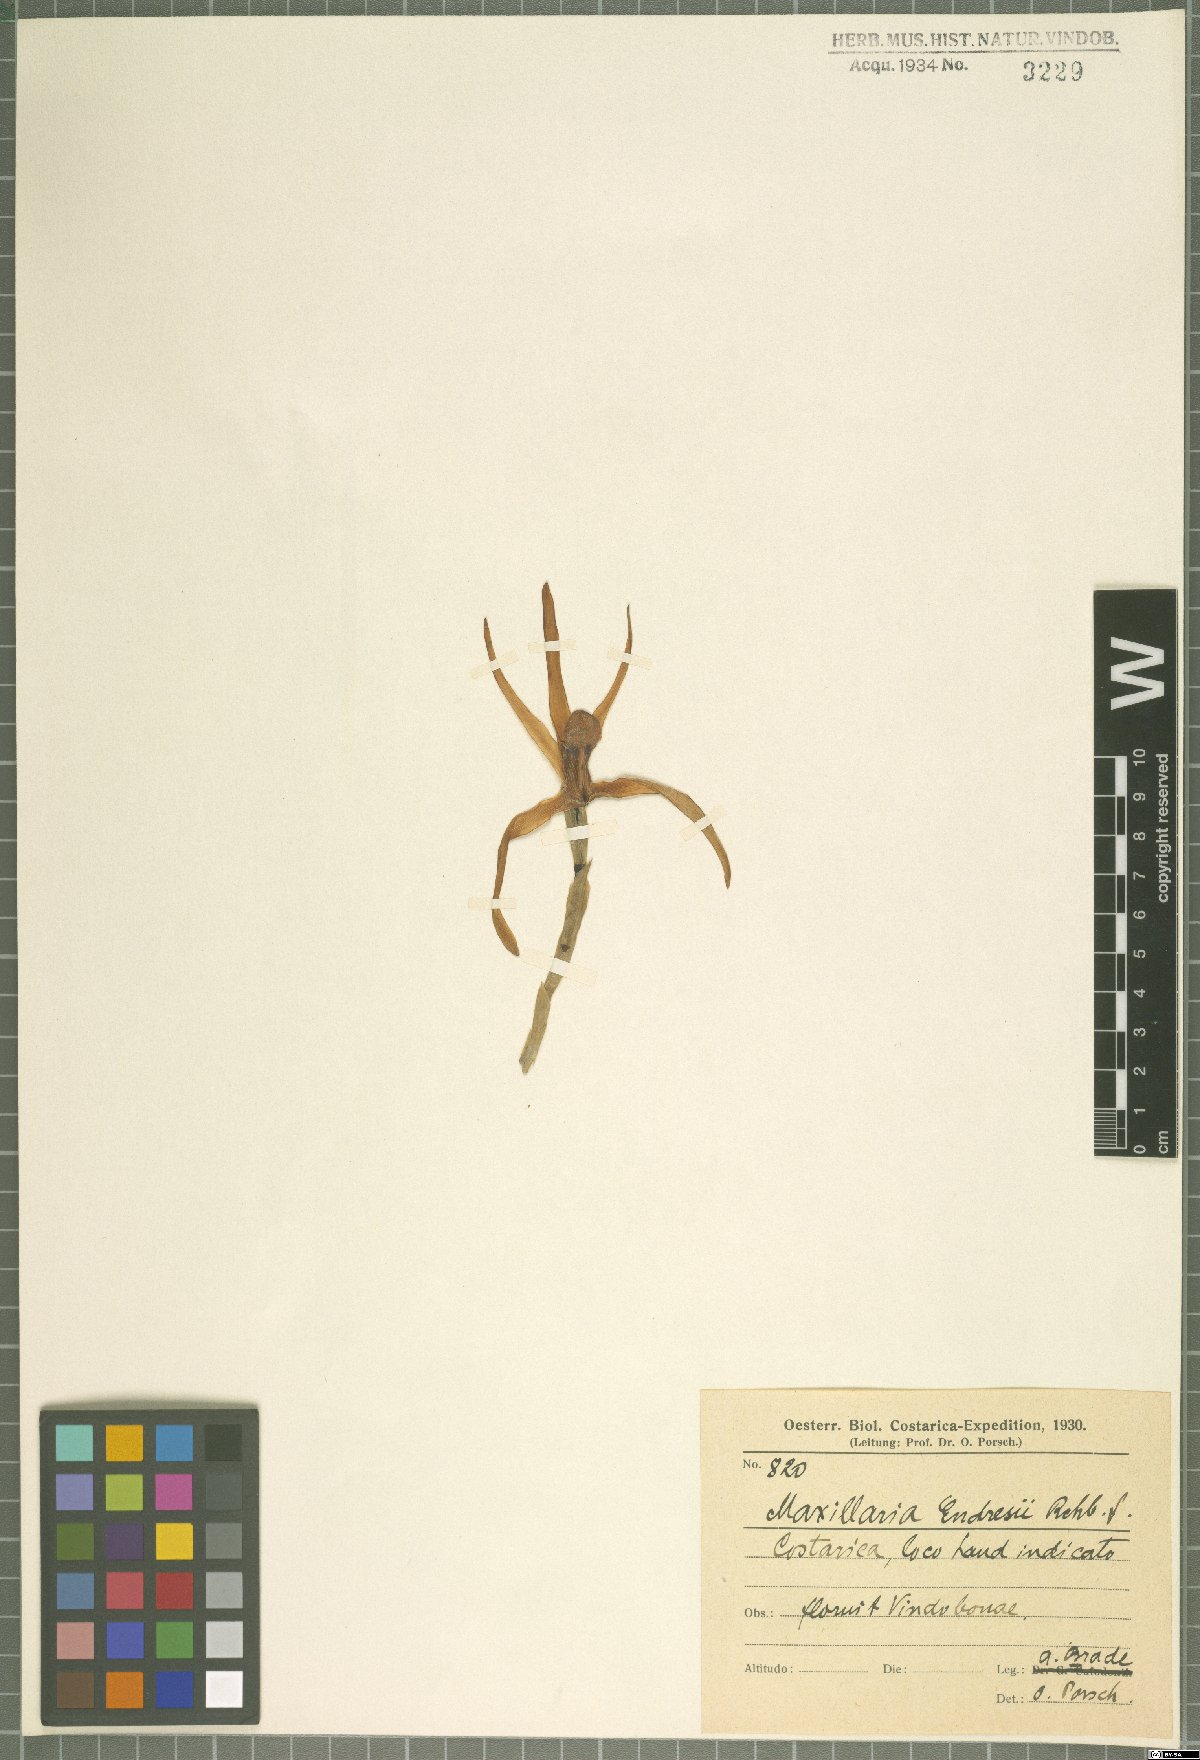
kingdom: Plantae
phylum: Tracheophyta
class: Liliopsida
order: Asparagales
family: Orchidaceae
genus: Maxillaria
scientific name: Maxillaria endresii
